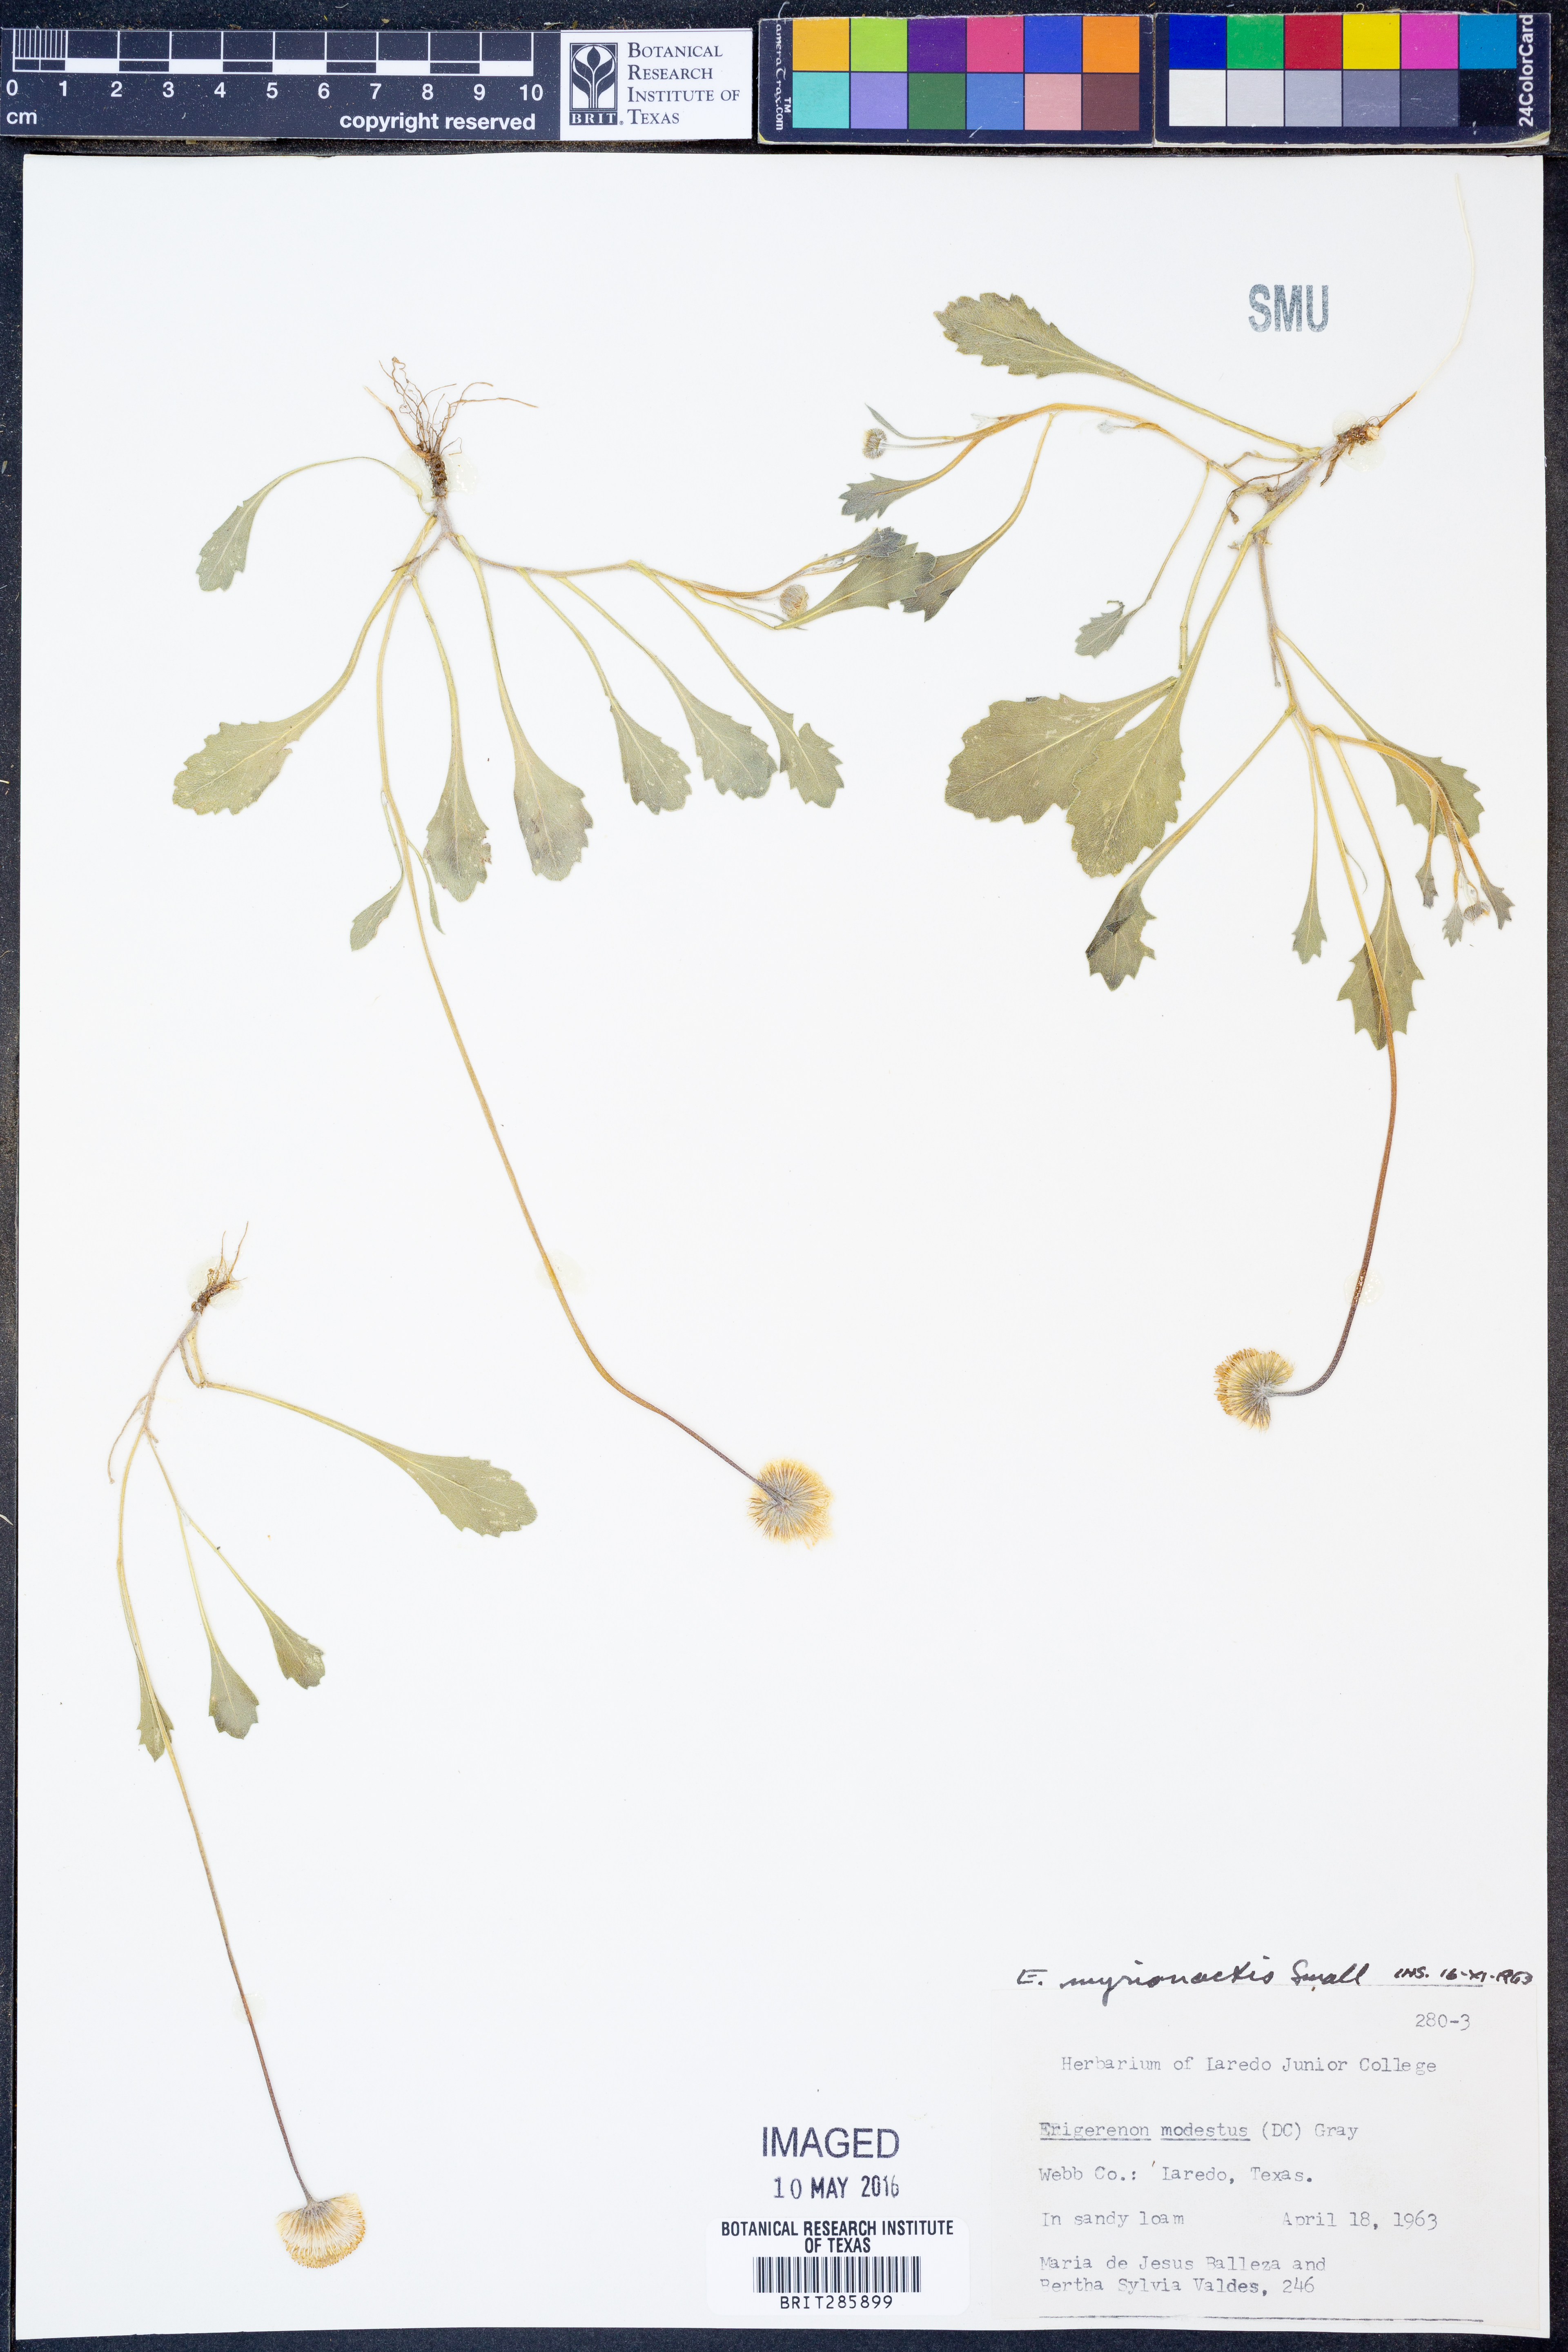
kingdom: Plantae
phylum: Tracheophyta
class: Magnoliopsida
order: Asterales
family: Asteraceae
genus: Erigeron
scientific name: Erigeron procumbens
